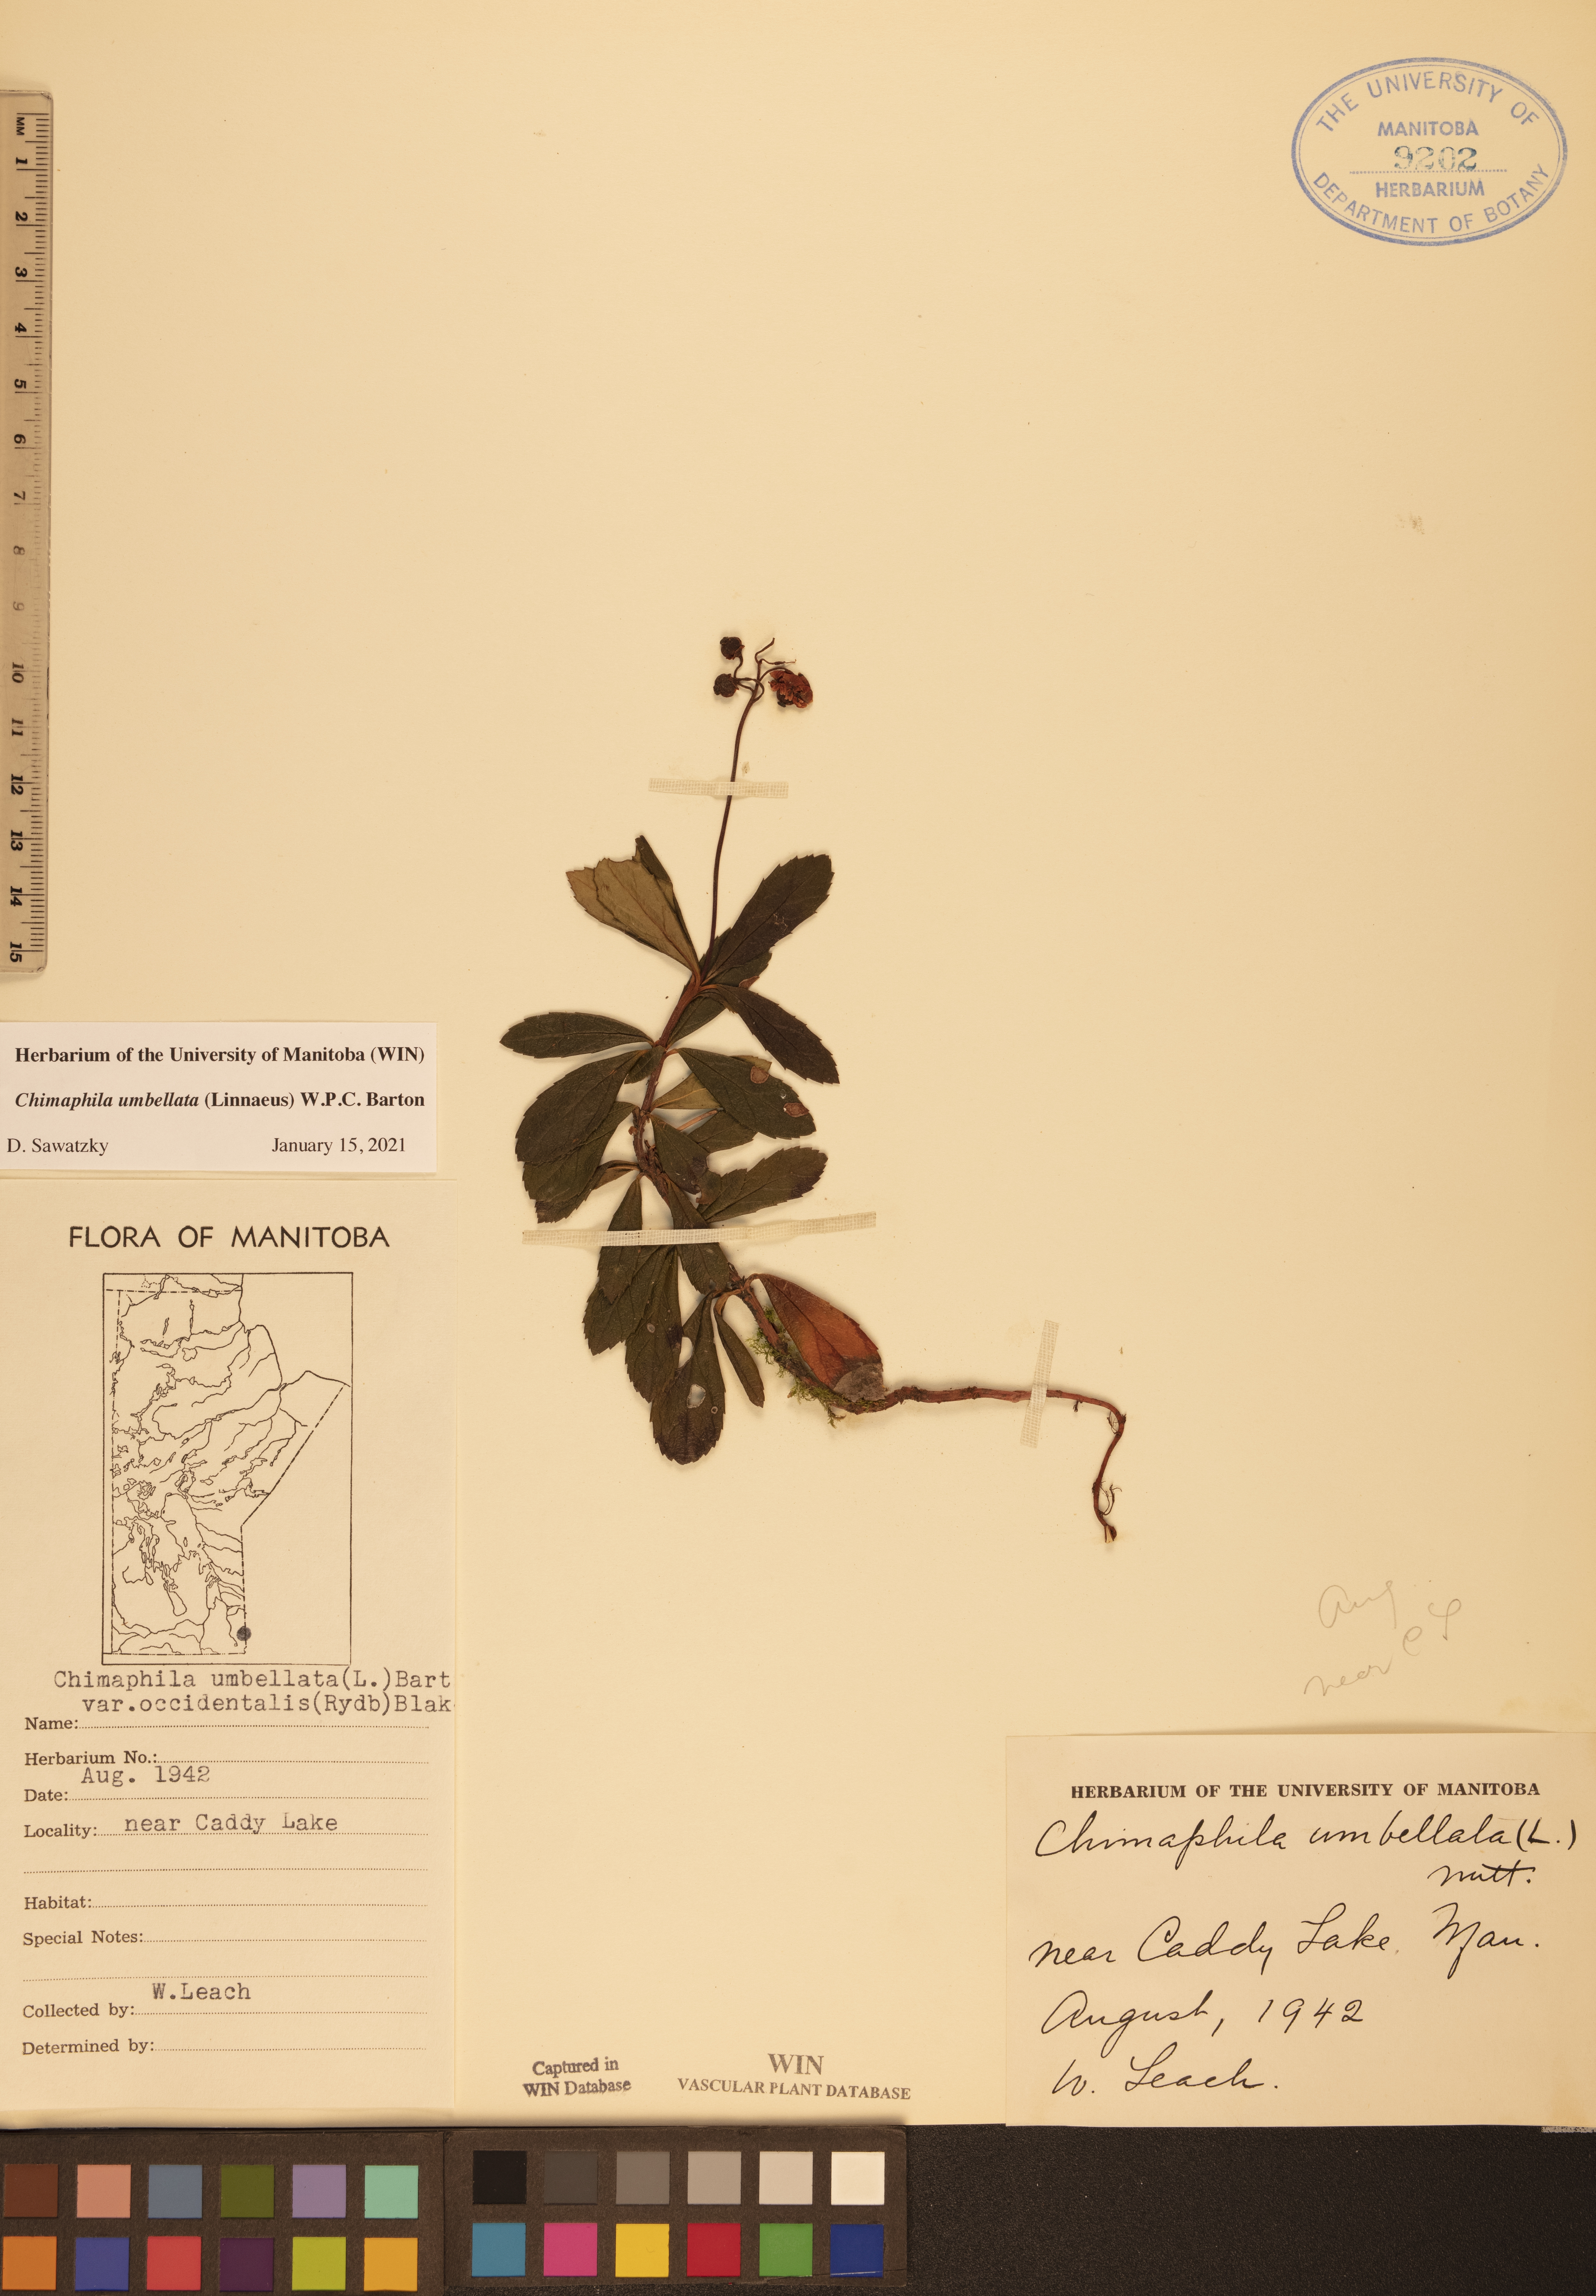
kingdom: Plantae
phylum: Tracheophyta
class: Magnoliopsida
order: Ericales
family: Ericaceae
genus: Chimaphila
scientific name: Chimaphila umbellata
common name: Pipsissewa
